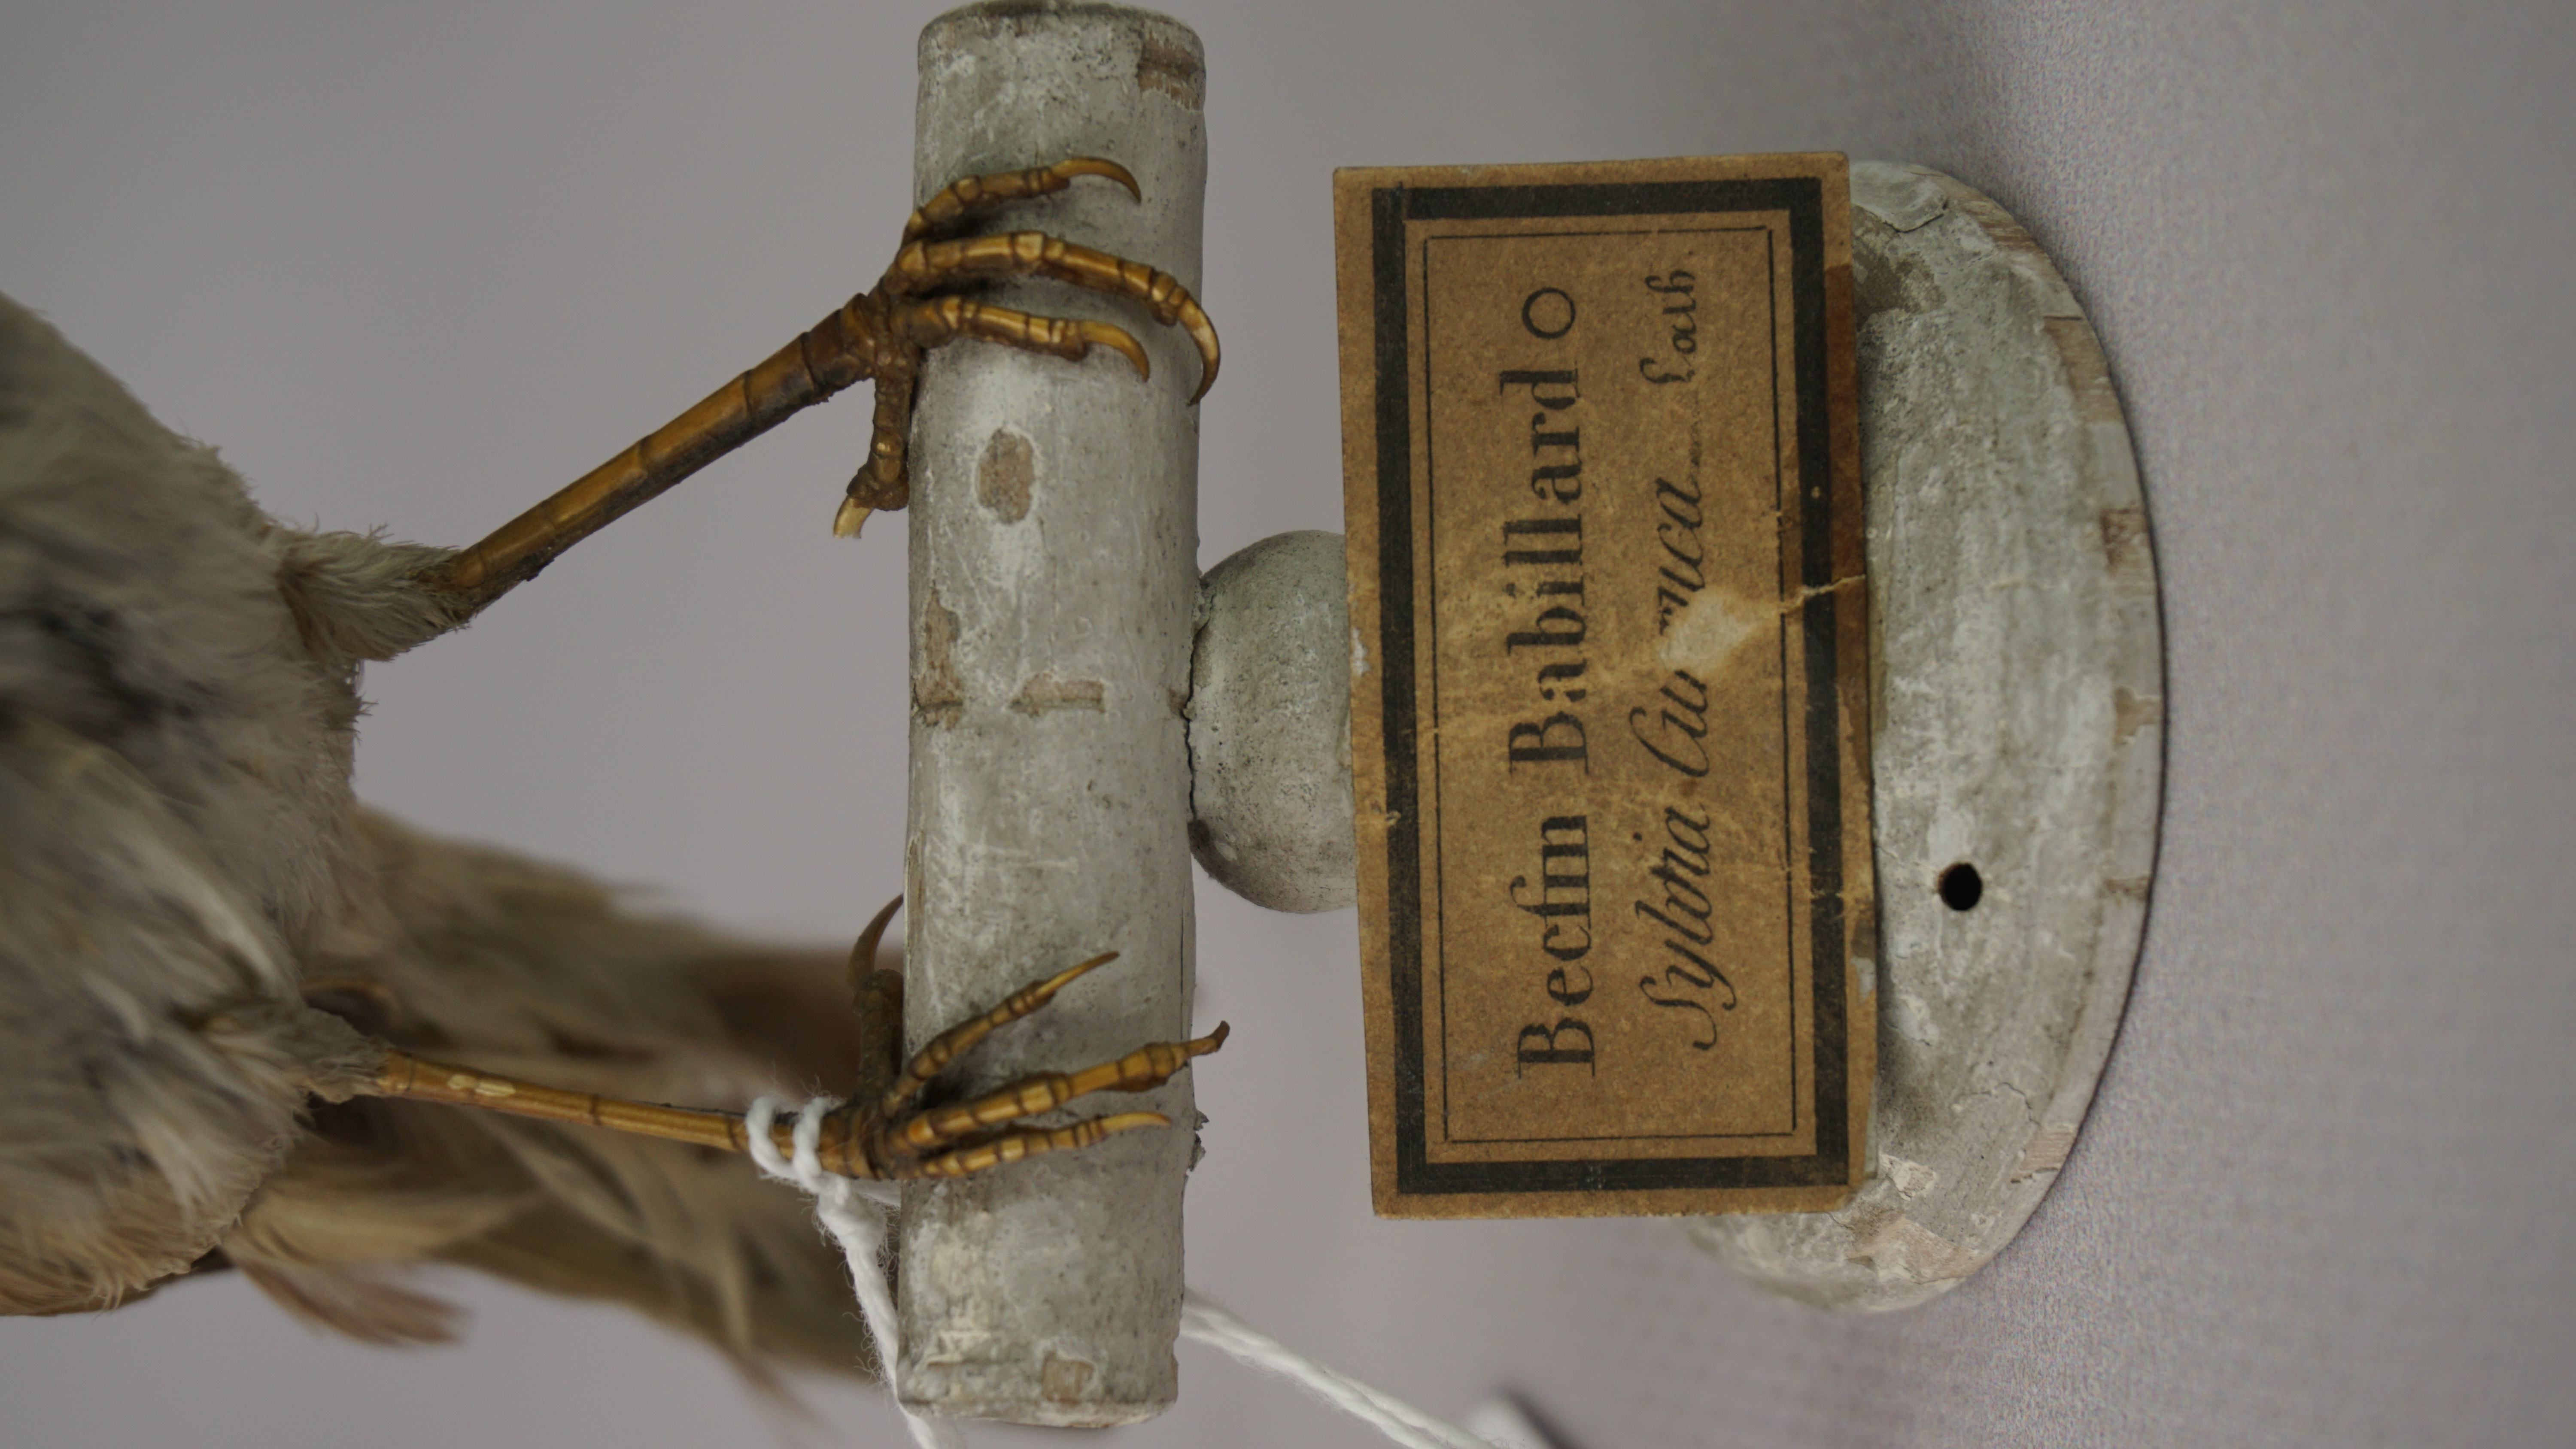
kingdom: Animalia
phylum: Chordata
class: Aves
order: Passeriformes
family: Sylviidae
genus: Sylvia
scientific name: Sylvia communis
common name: Common whitethroat
